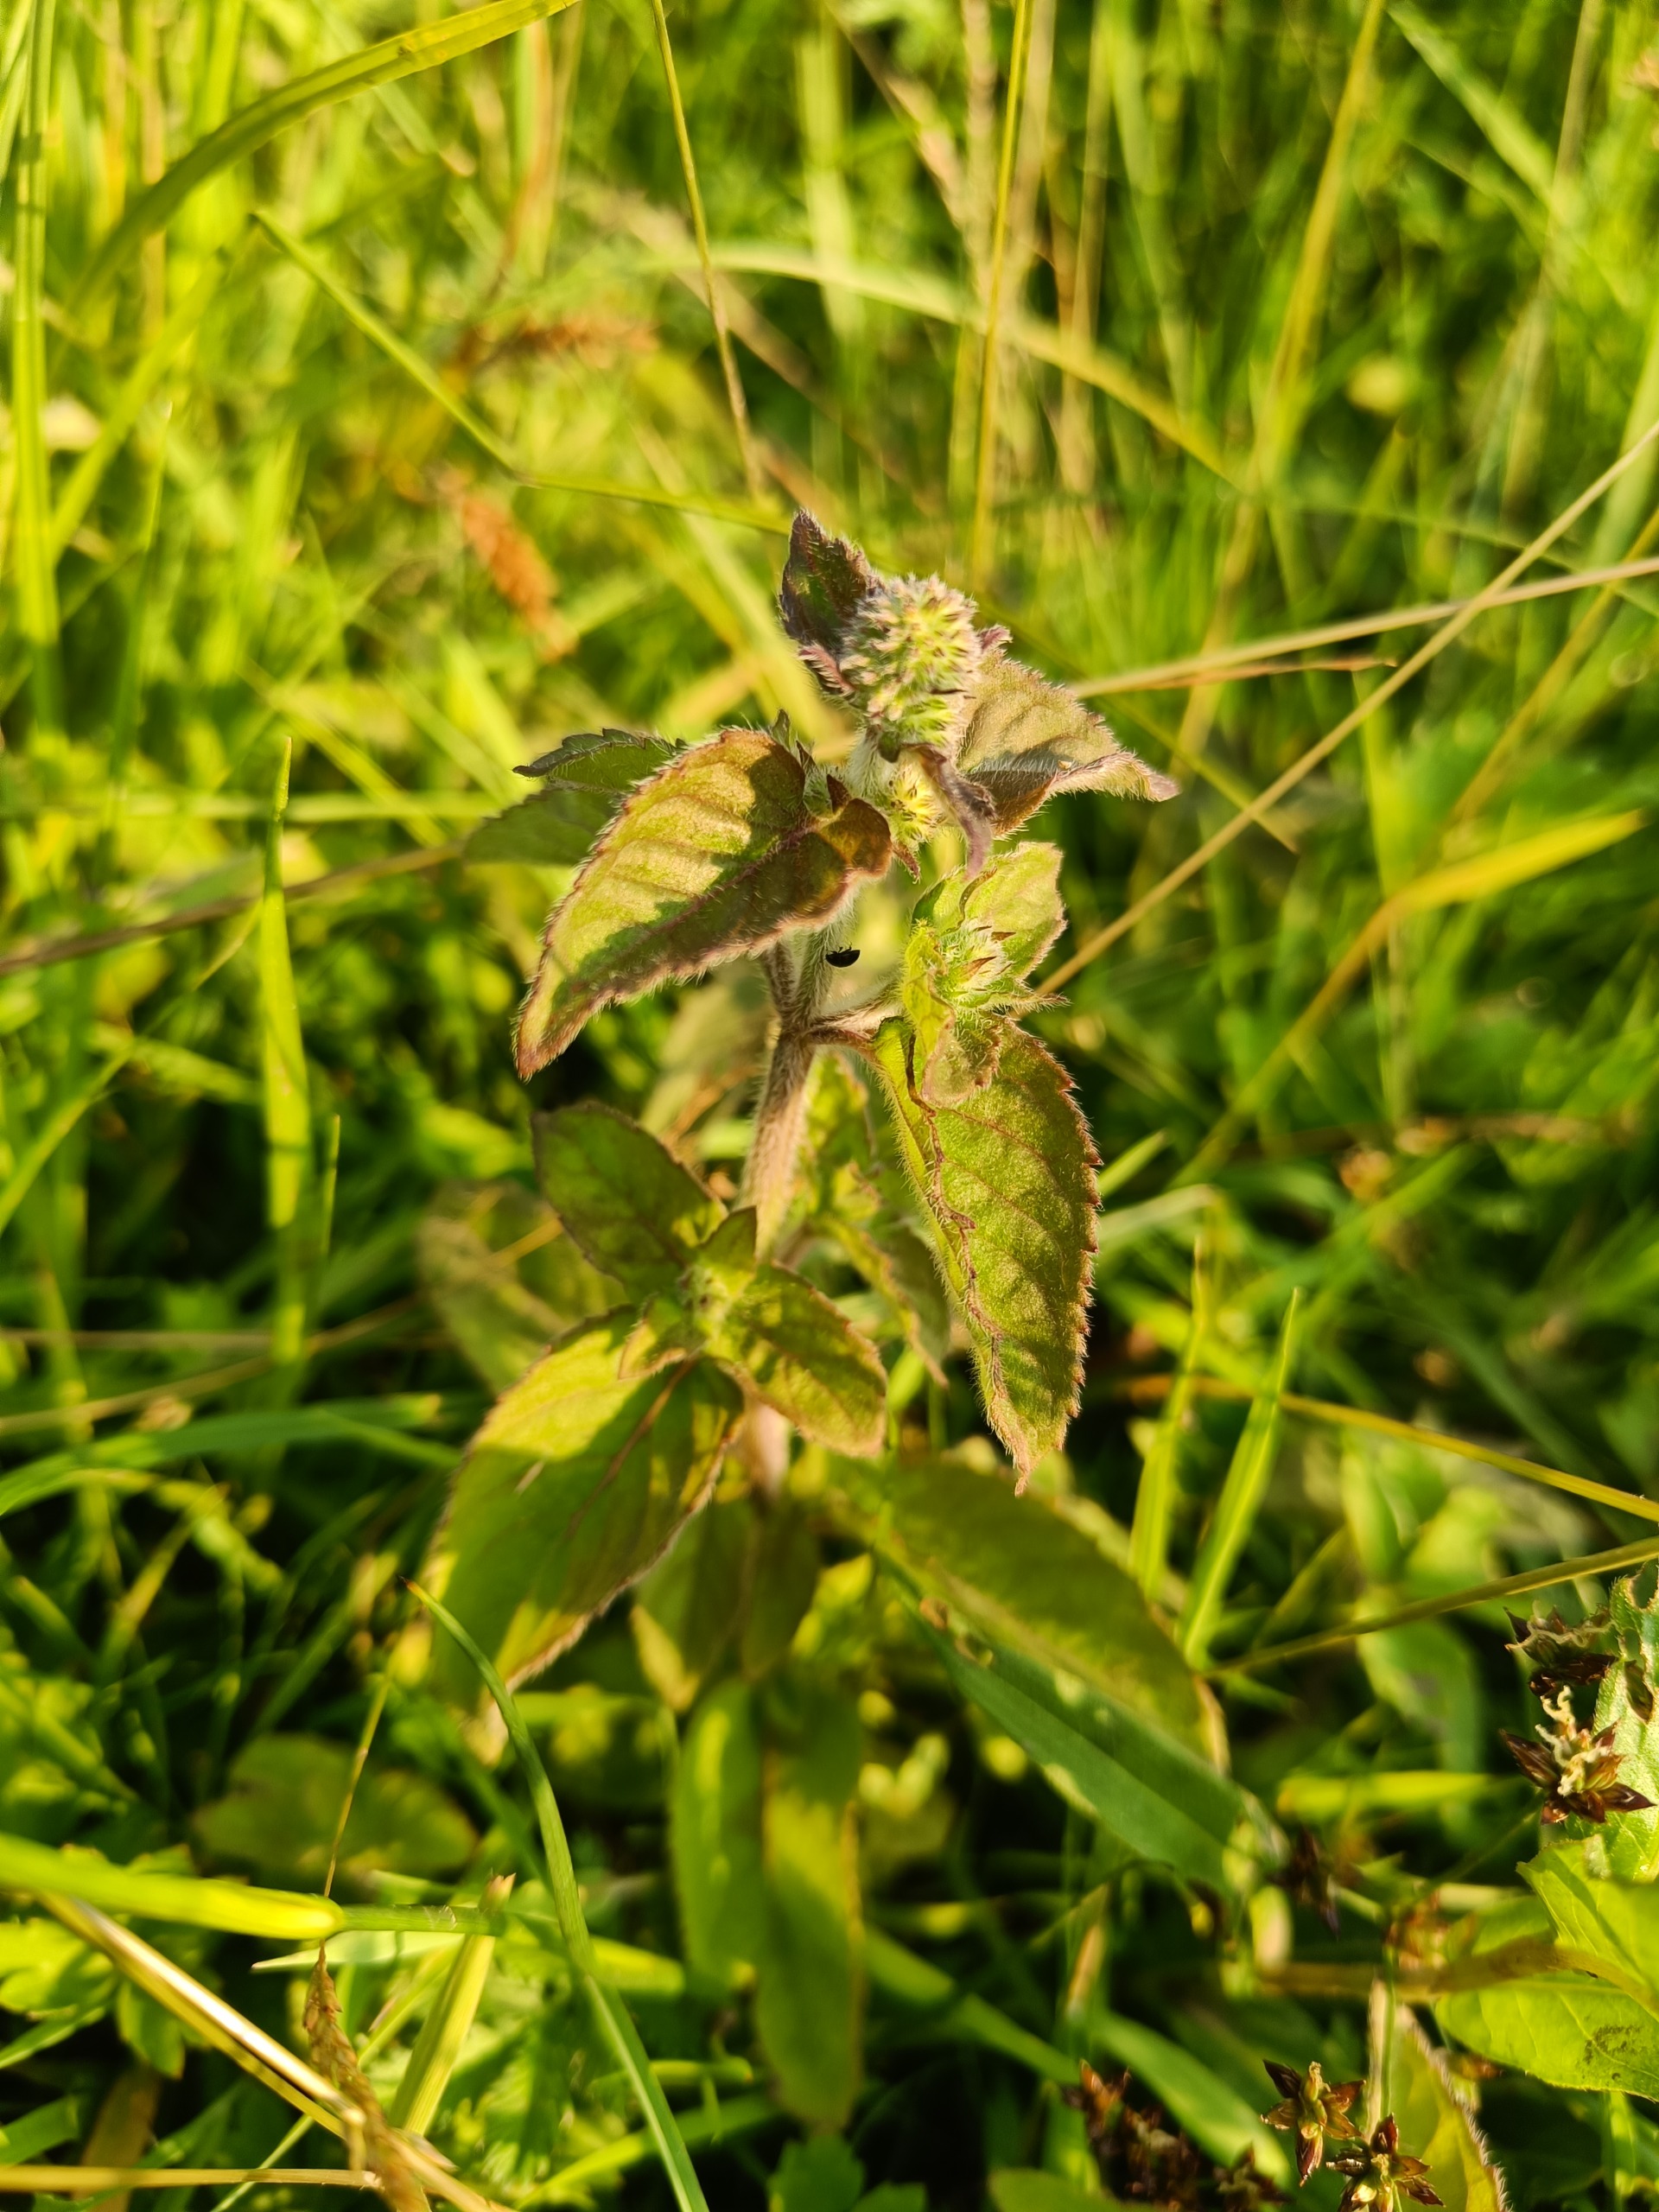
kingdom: Plantae
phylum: Tracheophyta
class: Magnoliopsida
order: Lamiales
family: Lamiaceae
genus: Mentha
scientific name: Mentha aquatica
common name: Vand-mynte
